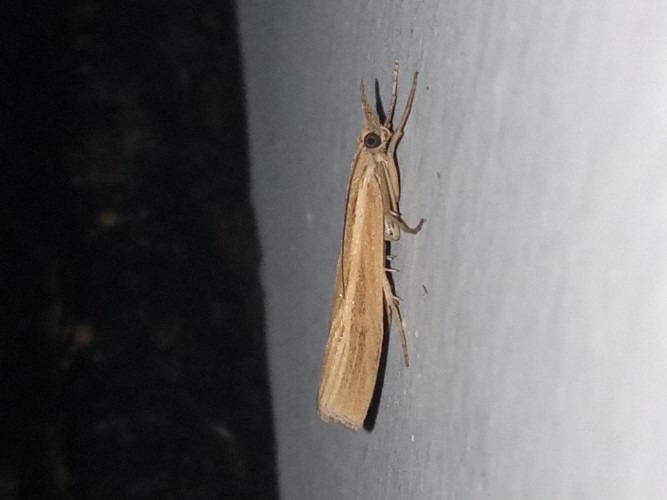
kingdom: Animalia
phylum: Arthropoda
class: Insecta
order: Lepidoptera
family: Crambidae
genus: Agriphila
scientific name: Agriphila tristellus
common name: Okkergult græsmøl
